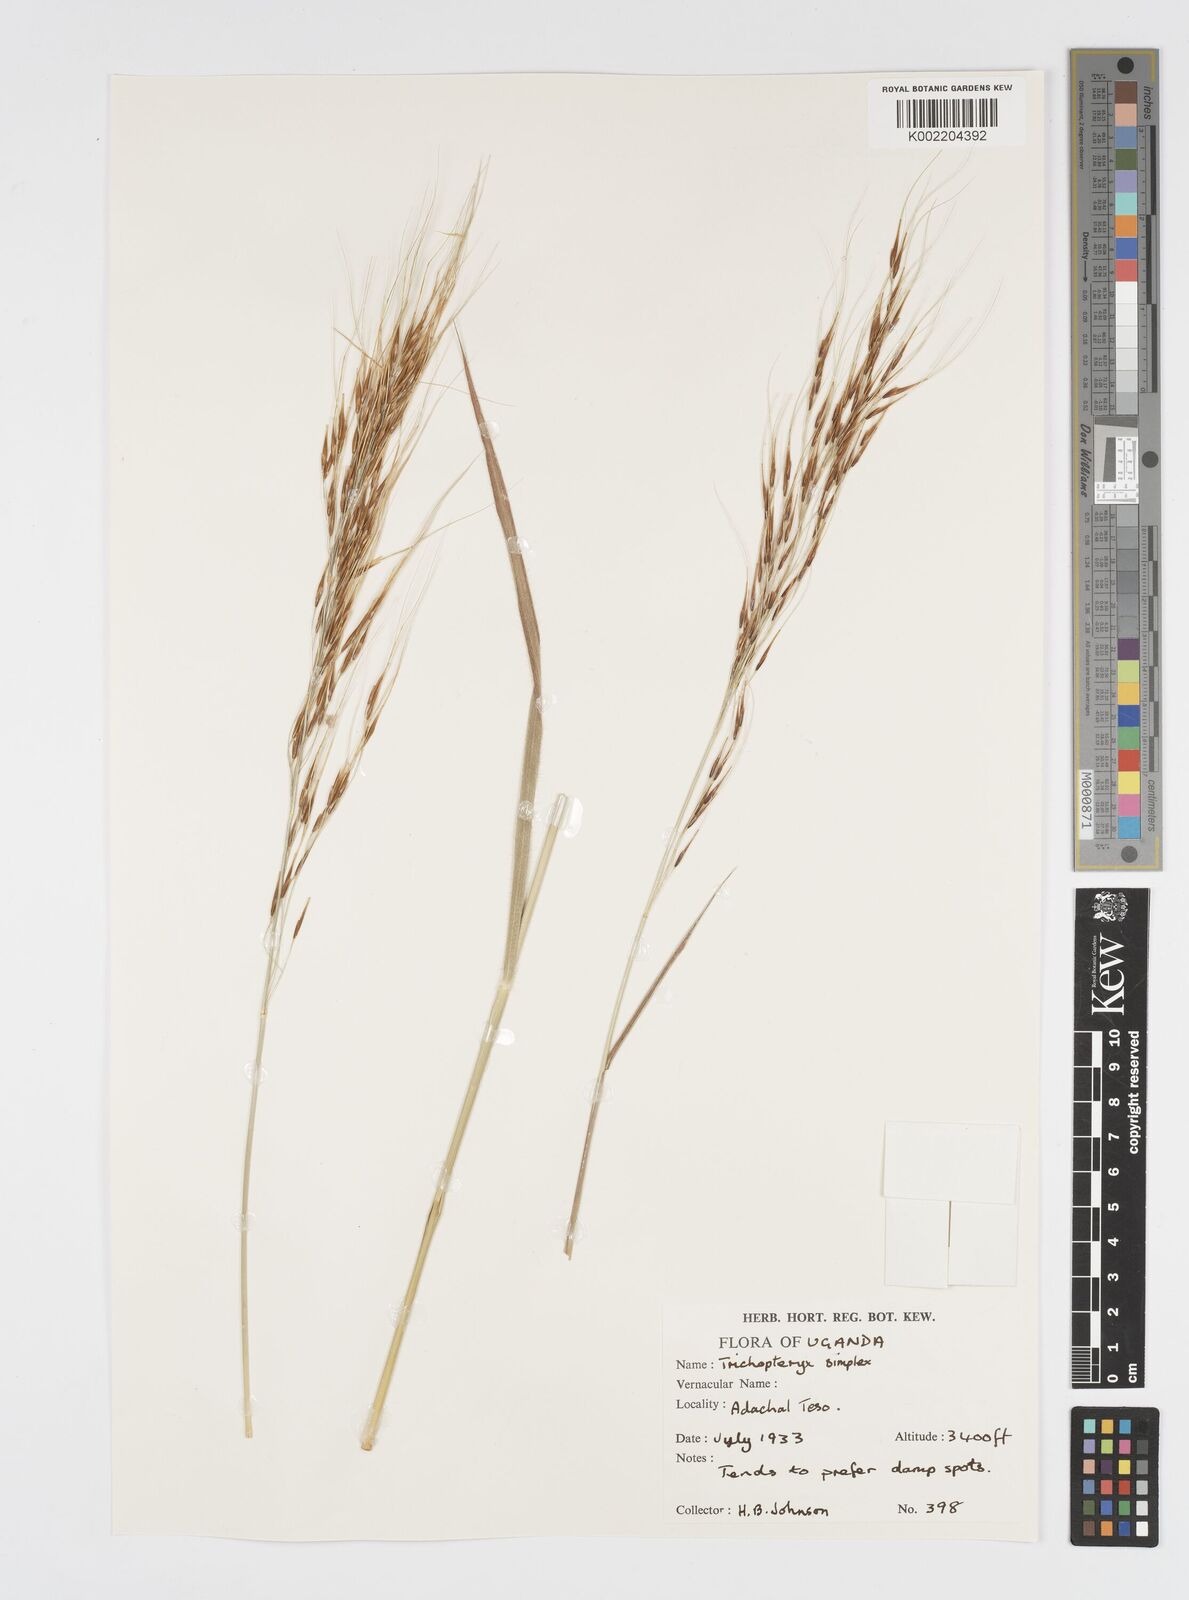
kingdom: Plantae
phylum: Tracheophyta
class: Liliopsida
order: Poales
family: Poaceae
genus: Loudetia
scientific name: Loudetia simplex
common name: Common russet grass
